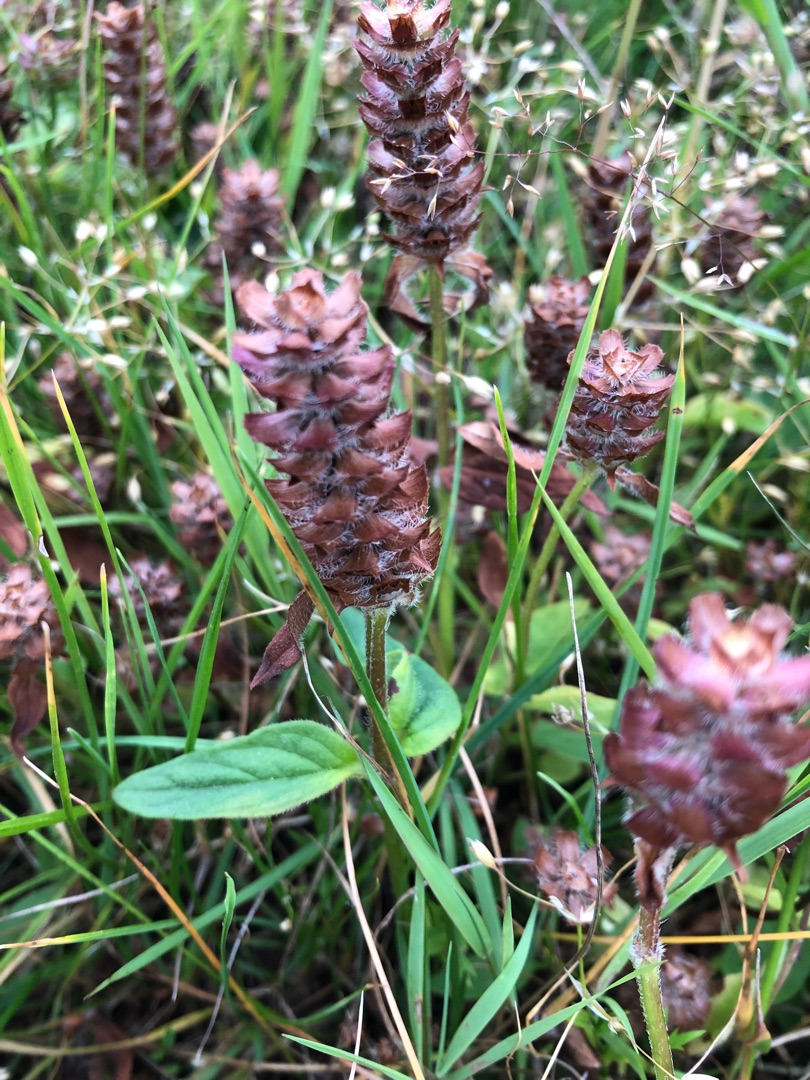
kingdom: Plantae
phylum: Tracheophyta
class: Magnoliopsida
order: Lamiales
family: Lamiaceae
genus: Prunella
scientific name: Prunella vulgaris
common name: Almindelig brunelle
